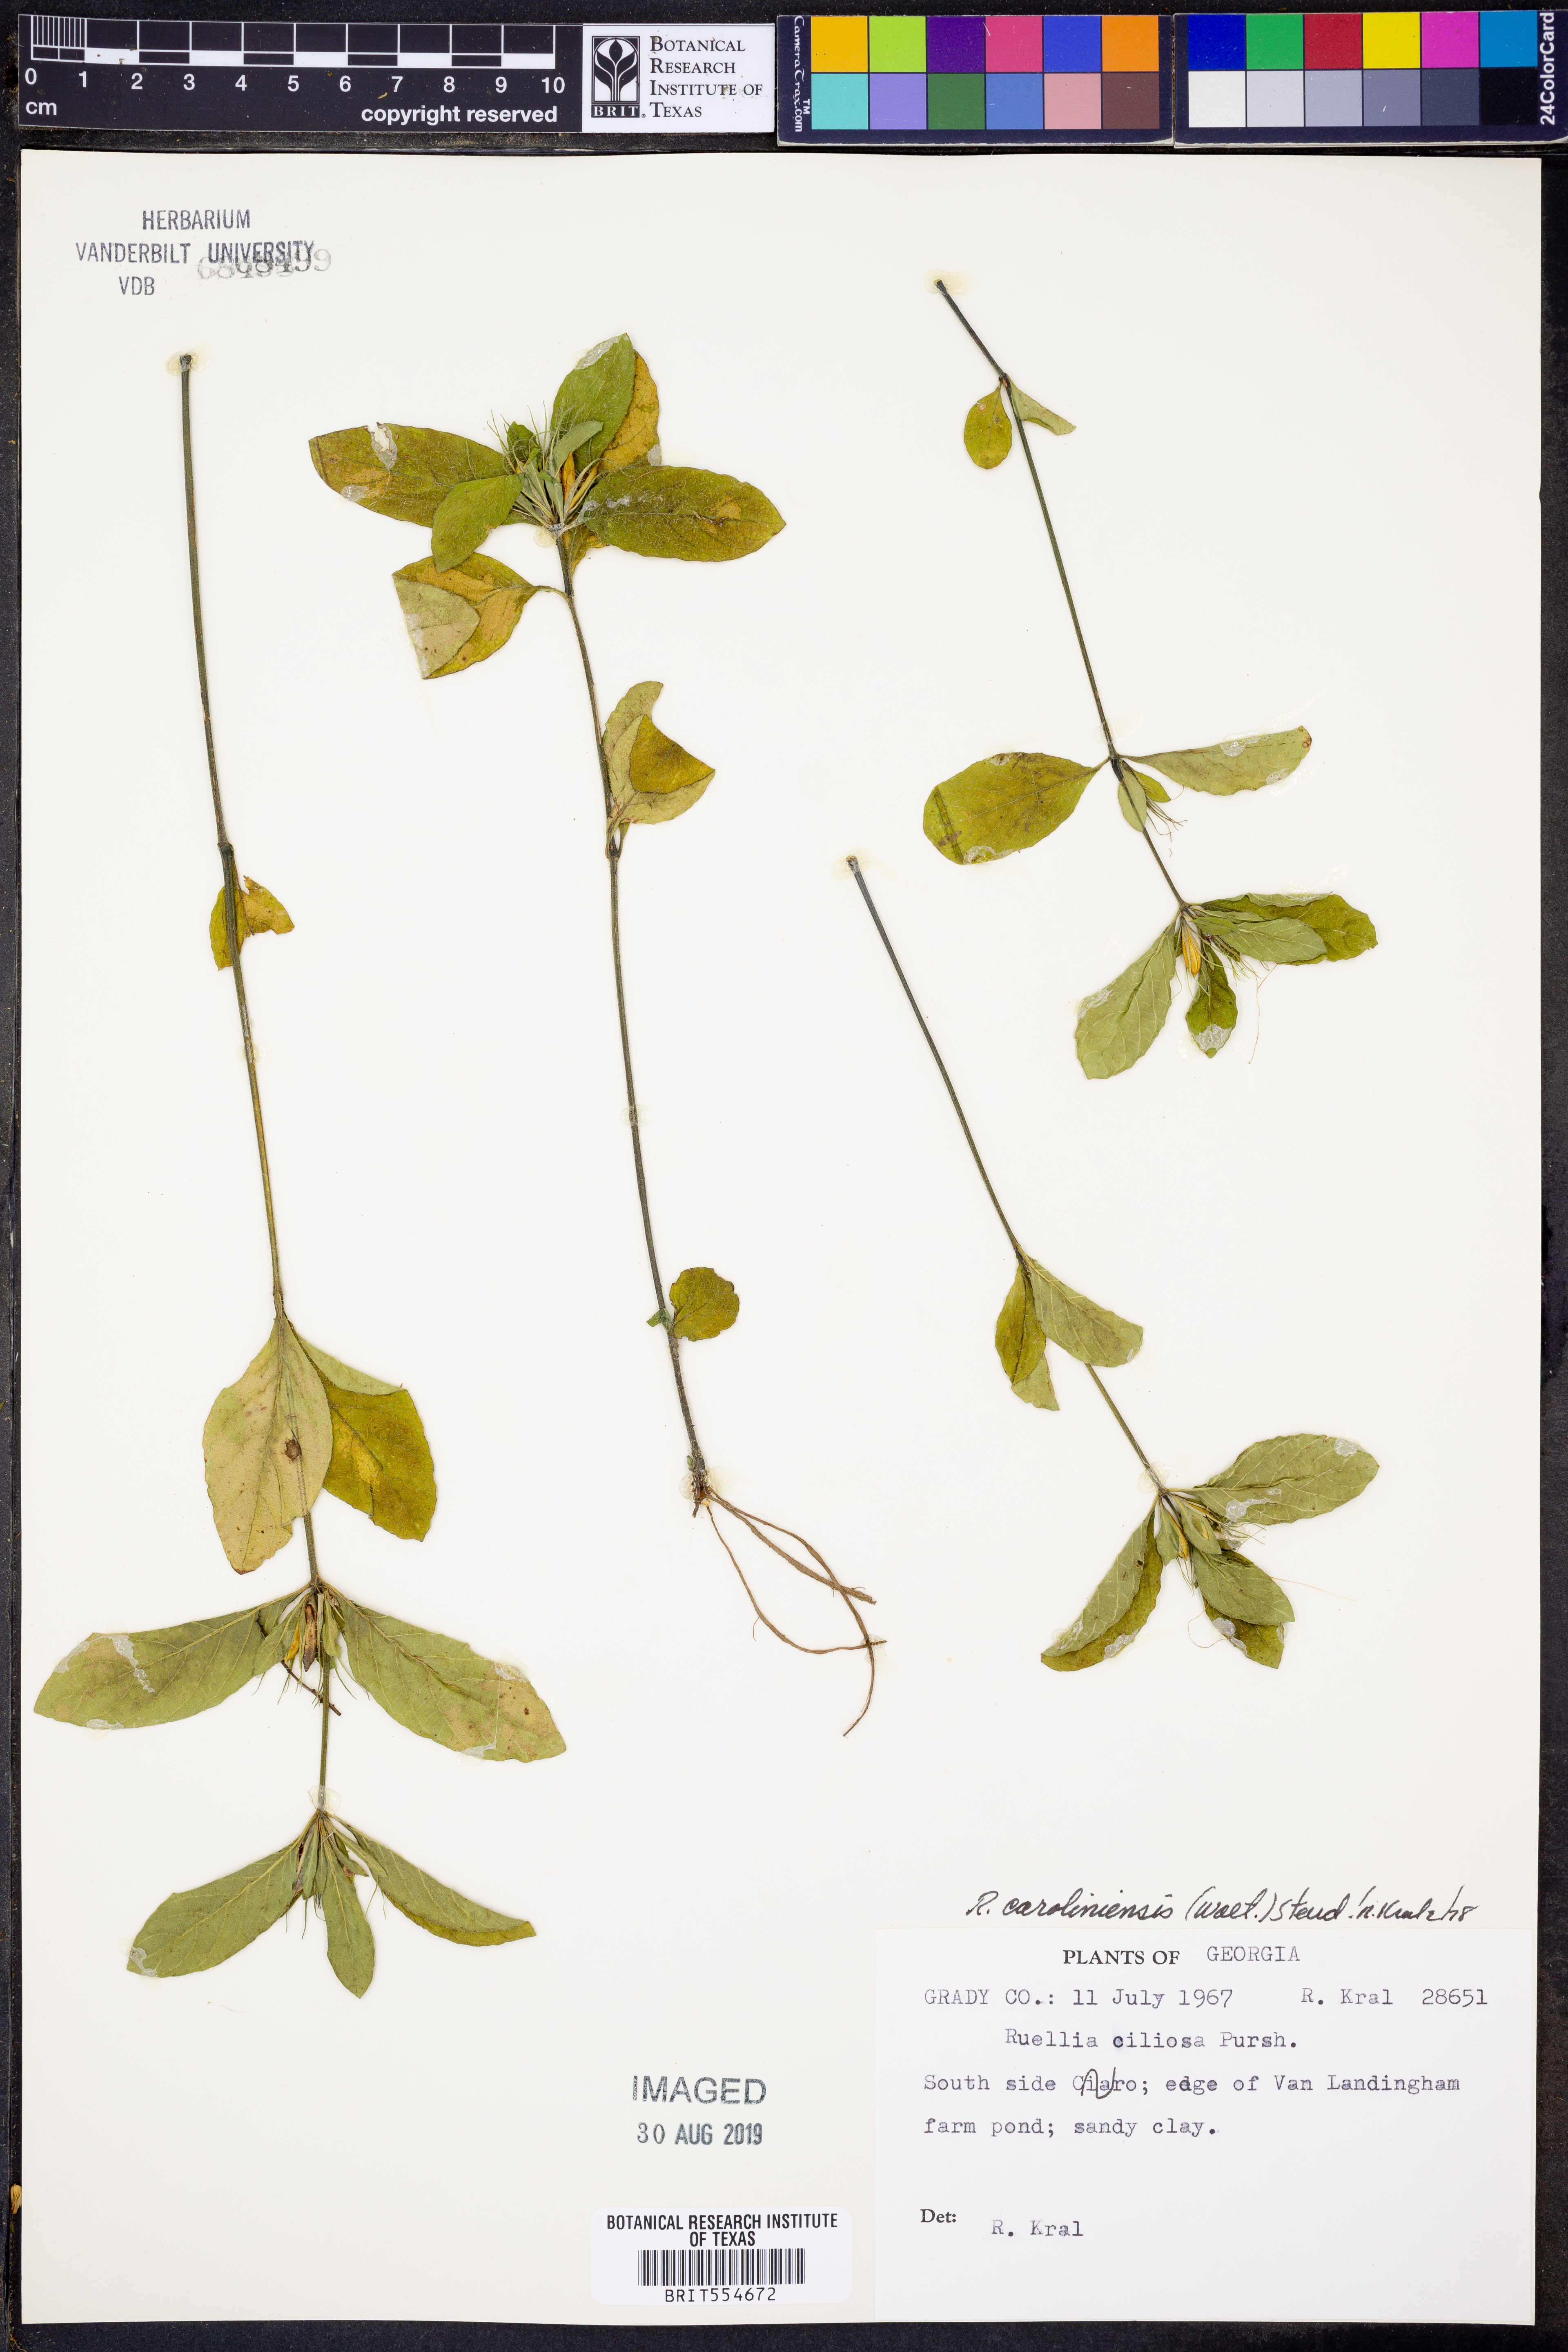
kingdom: Plantae
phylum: Tracheophyta
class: Magnoliopsida
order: Lamiales
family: Acanthaceae
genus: Ruellia
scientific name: Ruellia caroliniensis
